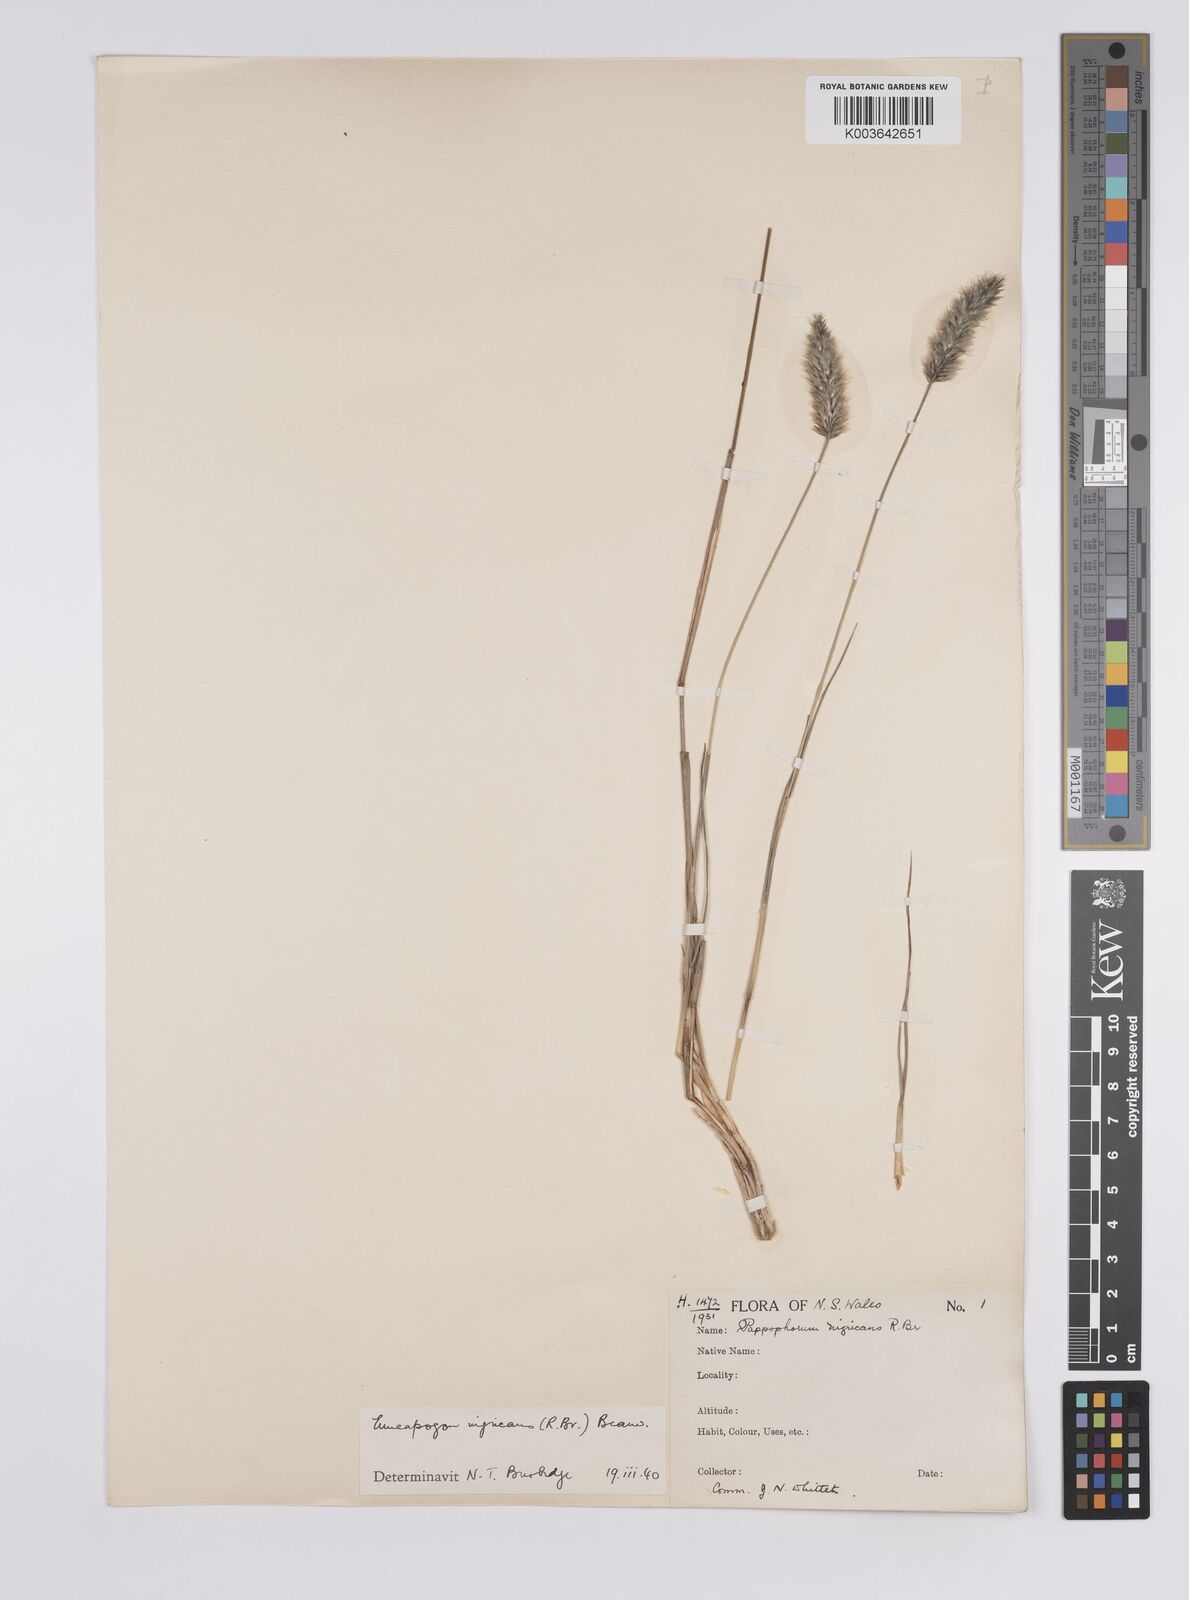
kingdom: Plantae
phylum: Tracheophyta
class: Liliopsida
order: Poales
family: Poaceae
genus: Enneapogon
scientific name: Enneapogon nigricans
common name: Pappus grass
